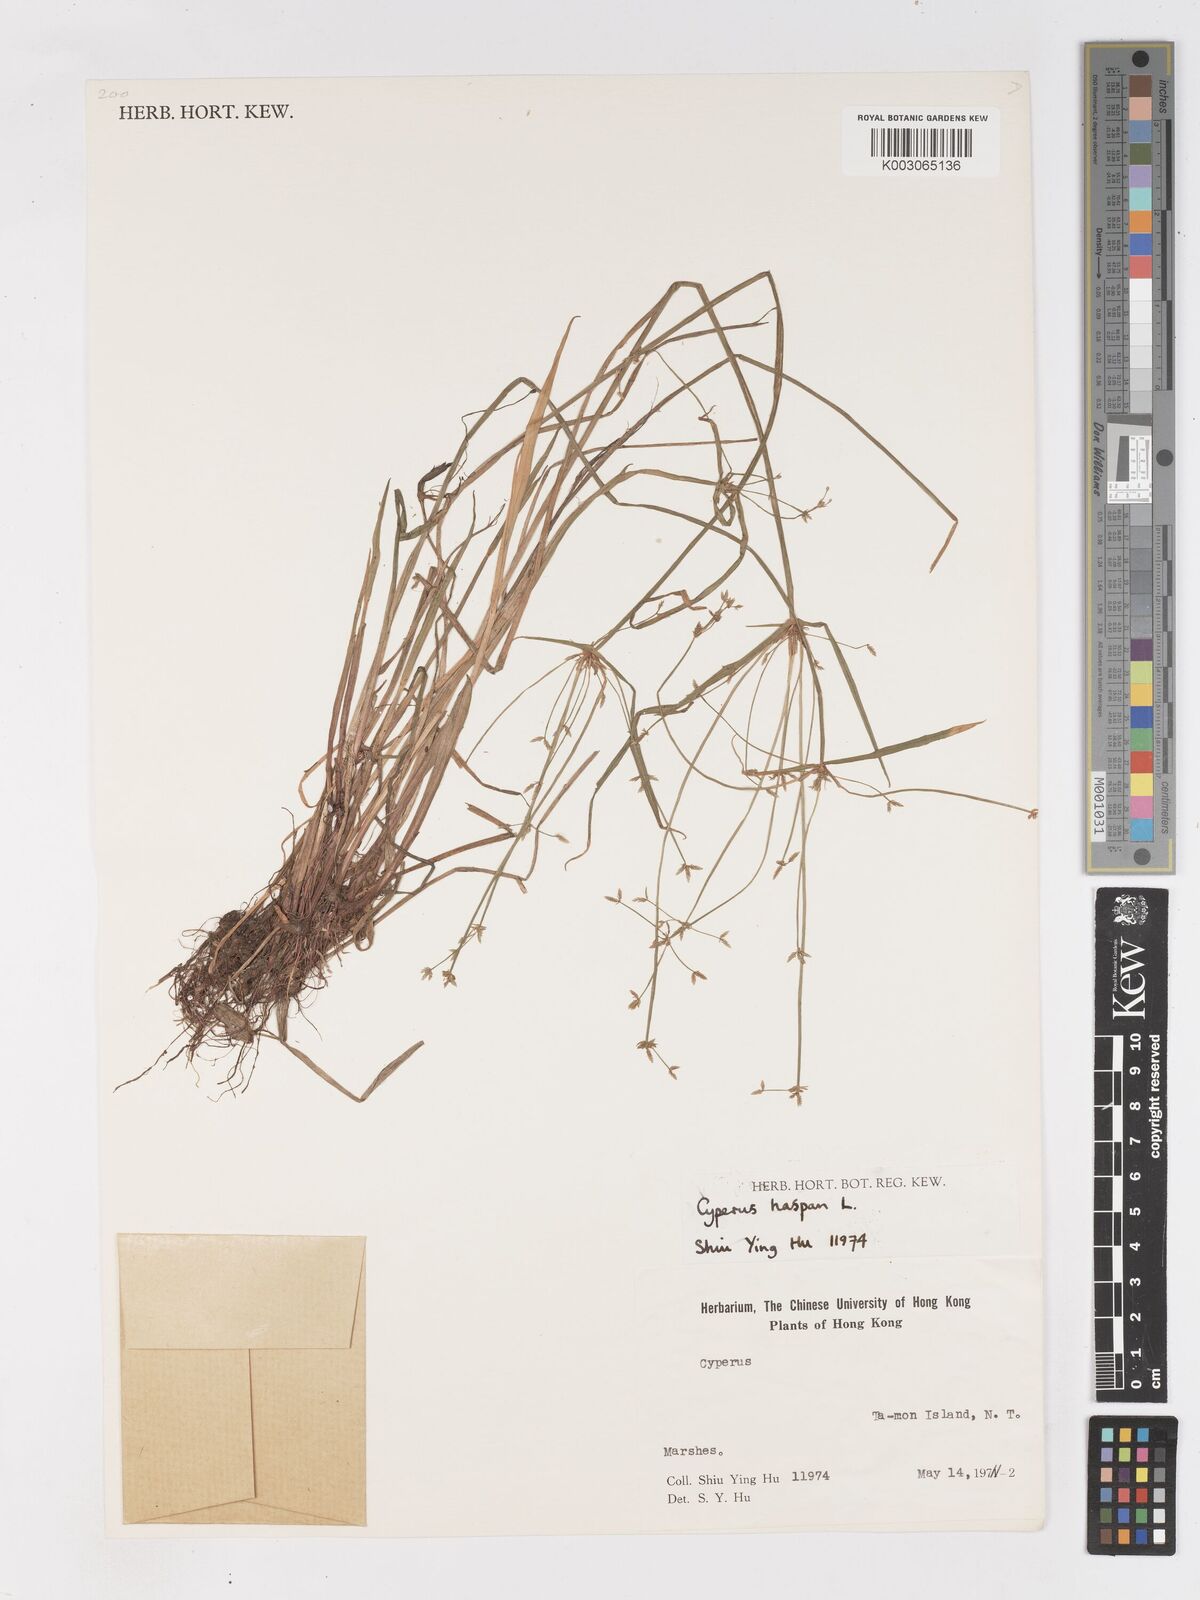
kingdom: Plantae
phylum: Tracheophyta
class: Liliopsida
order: Poales
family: Cyperaceae
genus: Cyperus
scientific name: Cyperus haspan
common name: Haspan flatsedge
